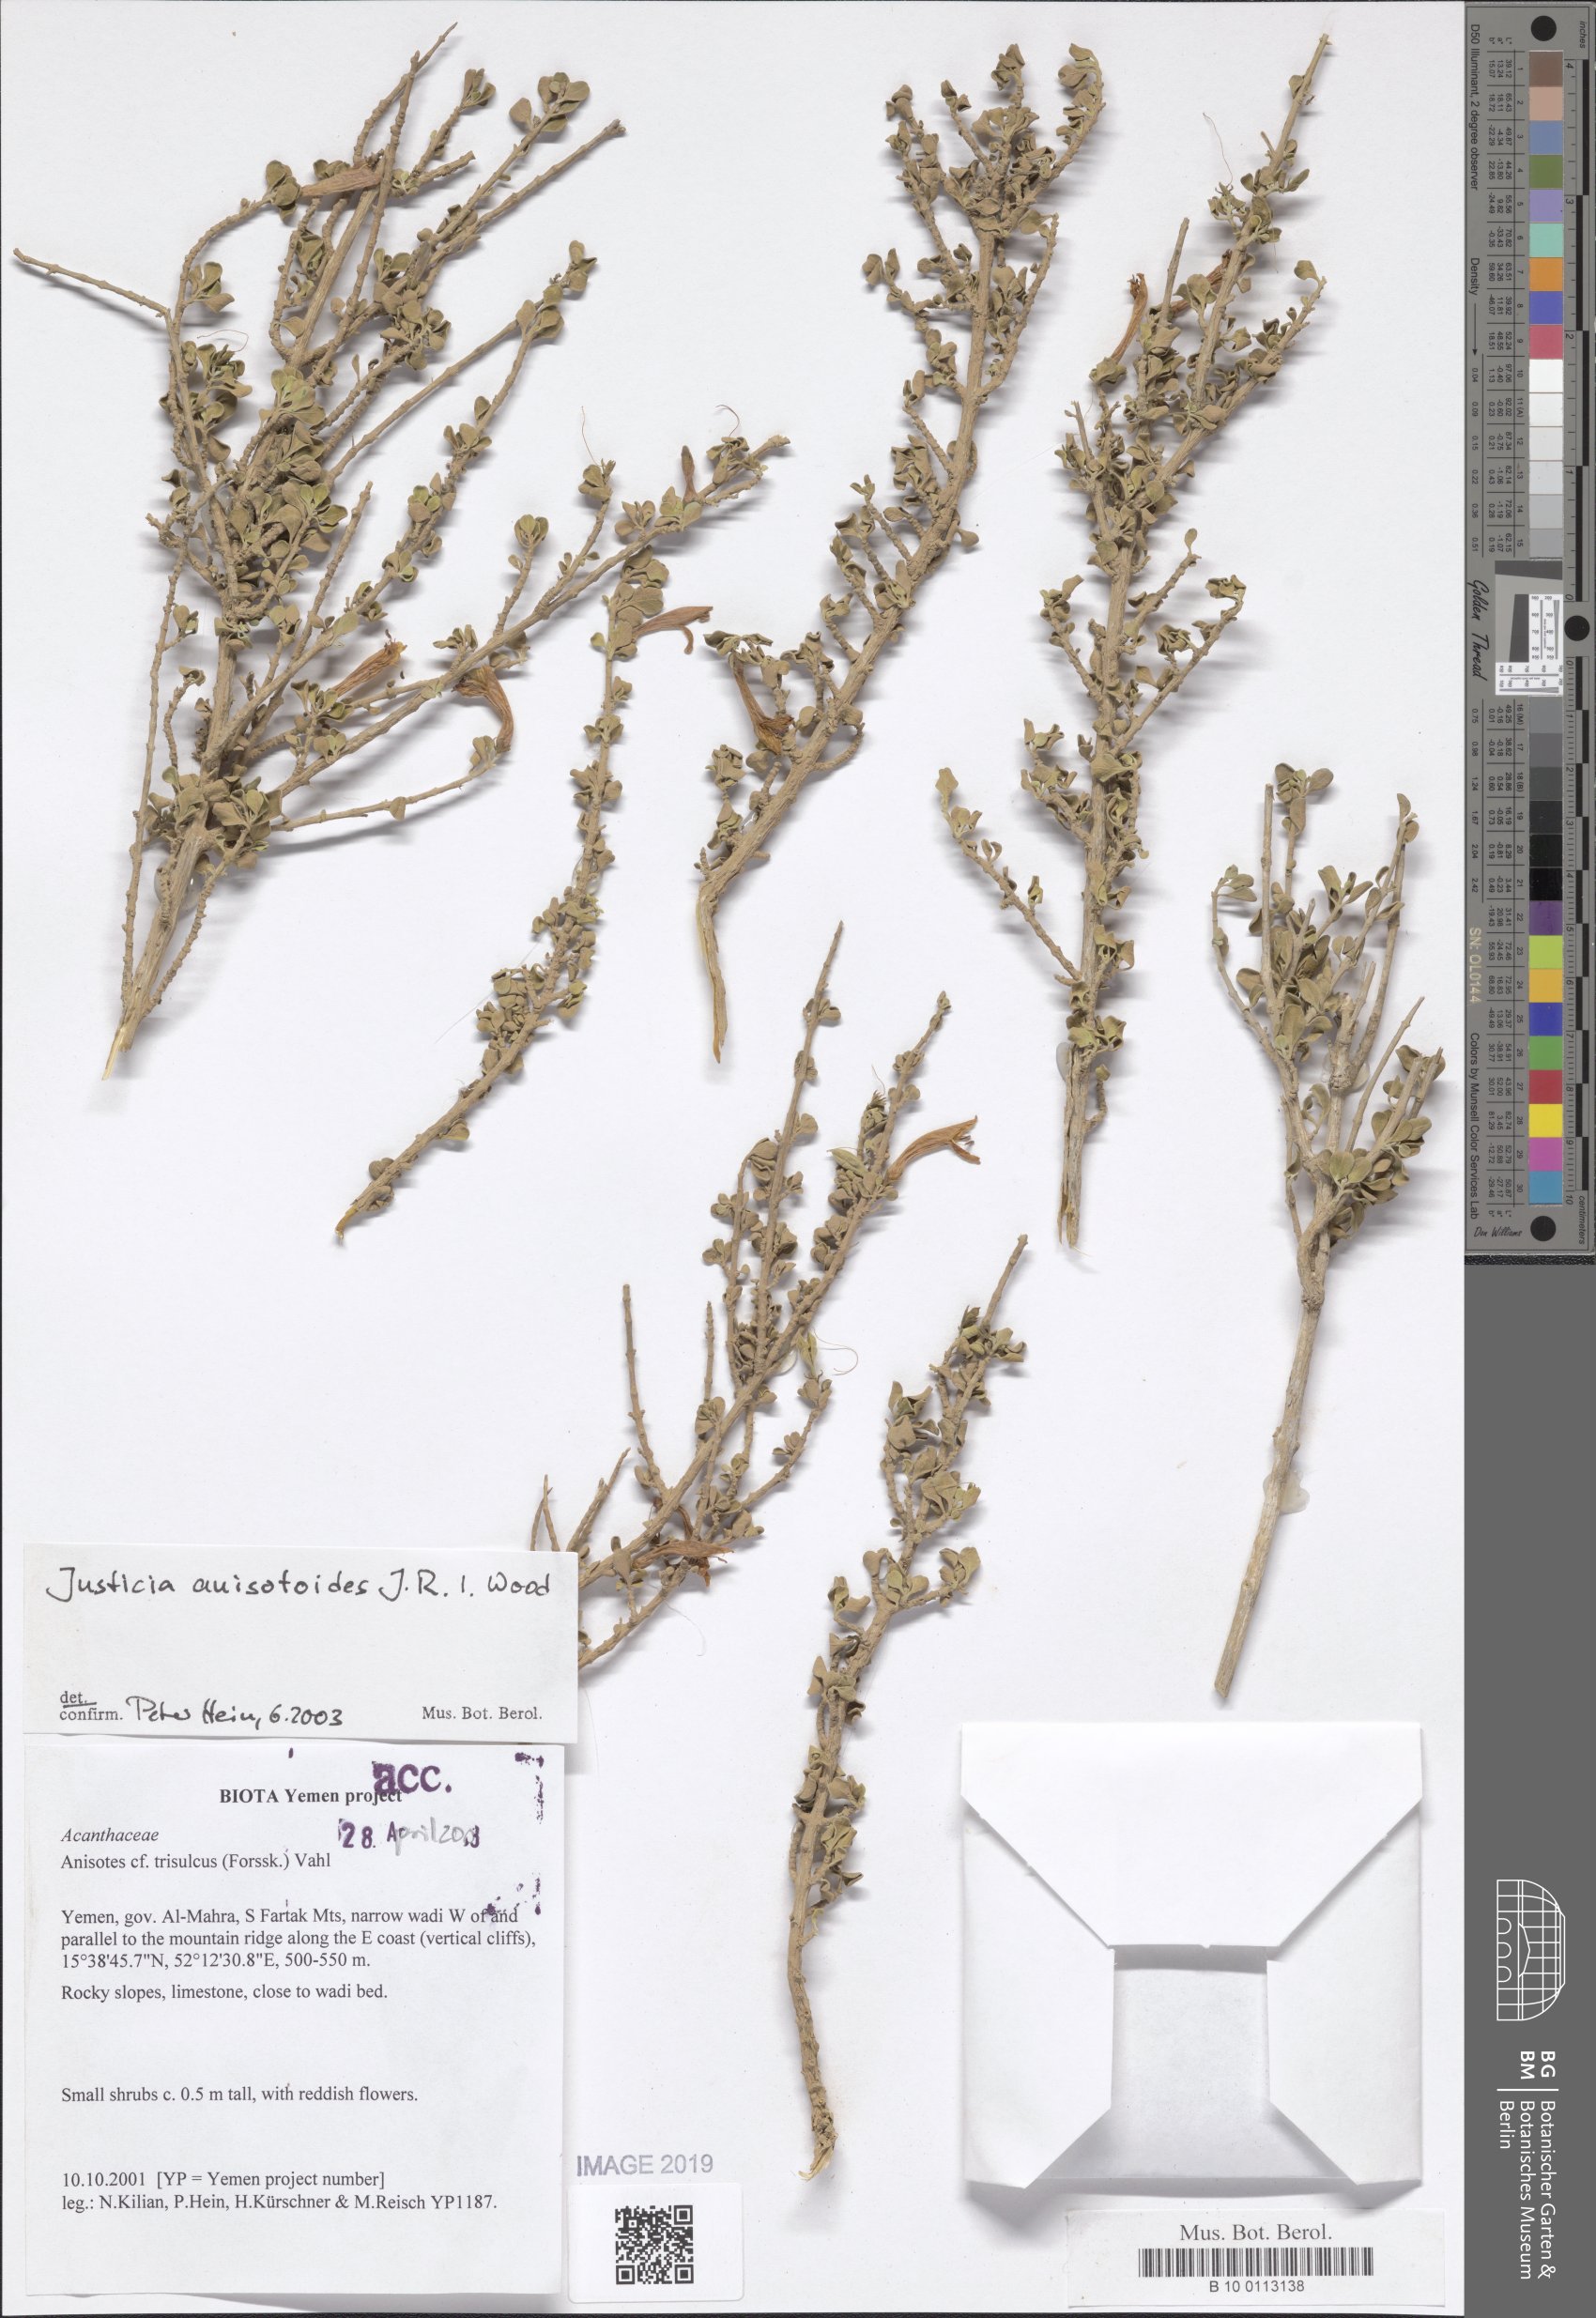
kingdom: Plantae
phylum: Tracheophyta
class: Magnoliopsida
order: Lamiales
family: Acanthaceae
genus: Justicia
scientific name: Justicia anisotoides
